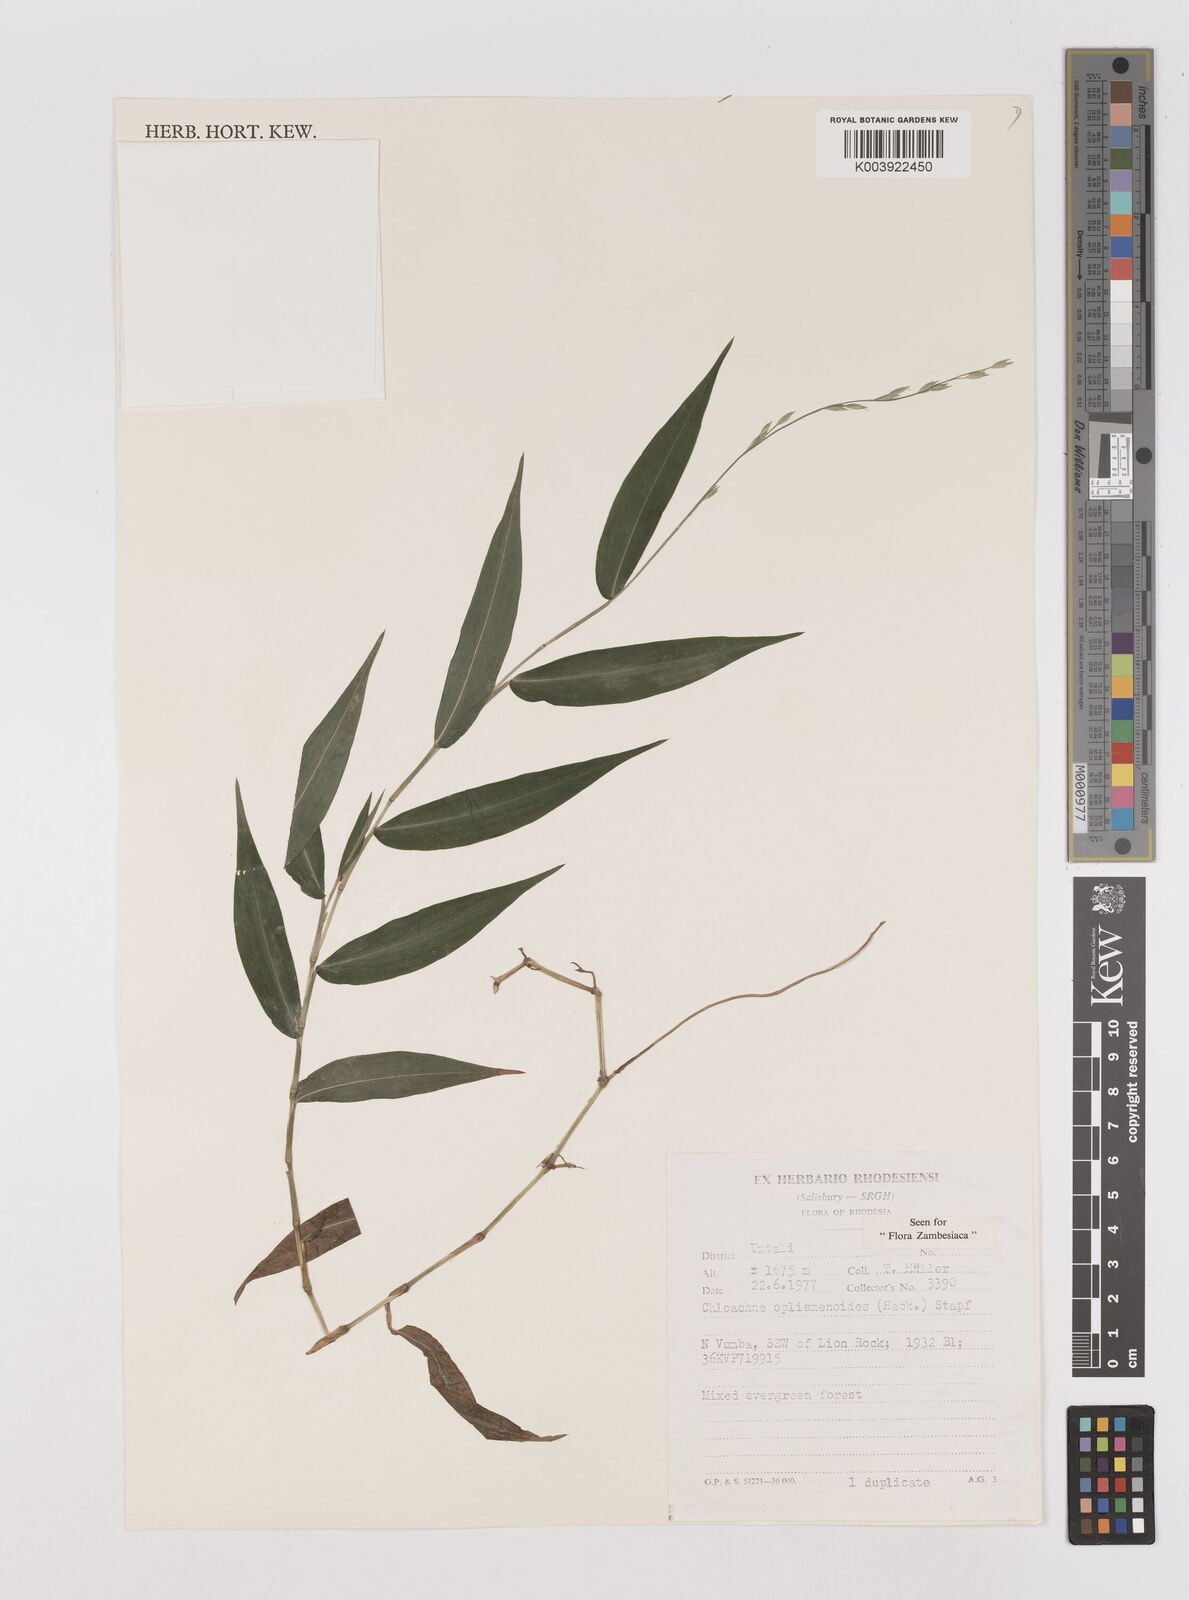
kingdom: Plantae
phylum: Tracheophyta
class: Liliopsida
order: Poales
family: Poaceae
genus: Poecilostachys
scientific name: Poecilostachys oplismenoides
